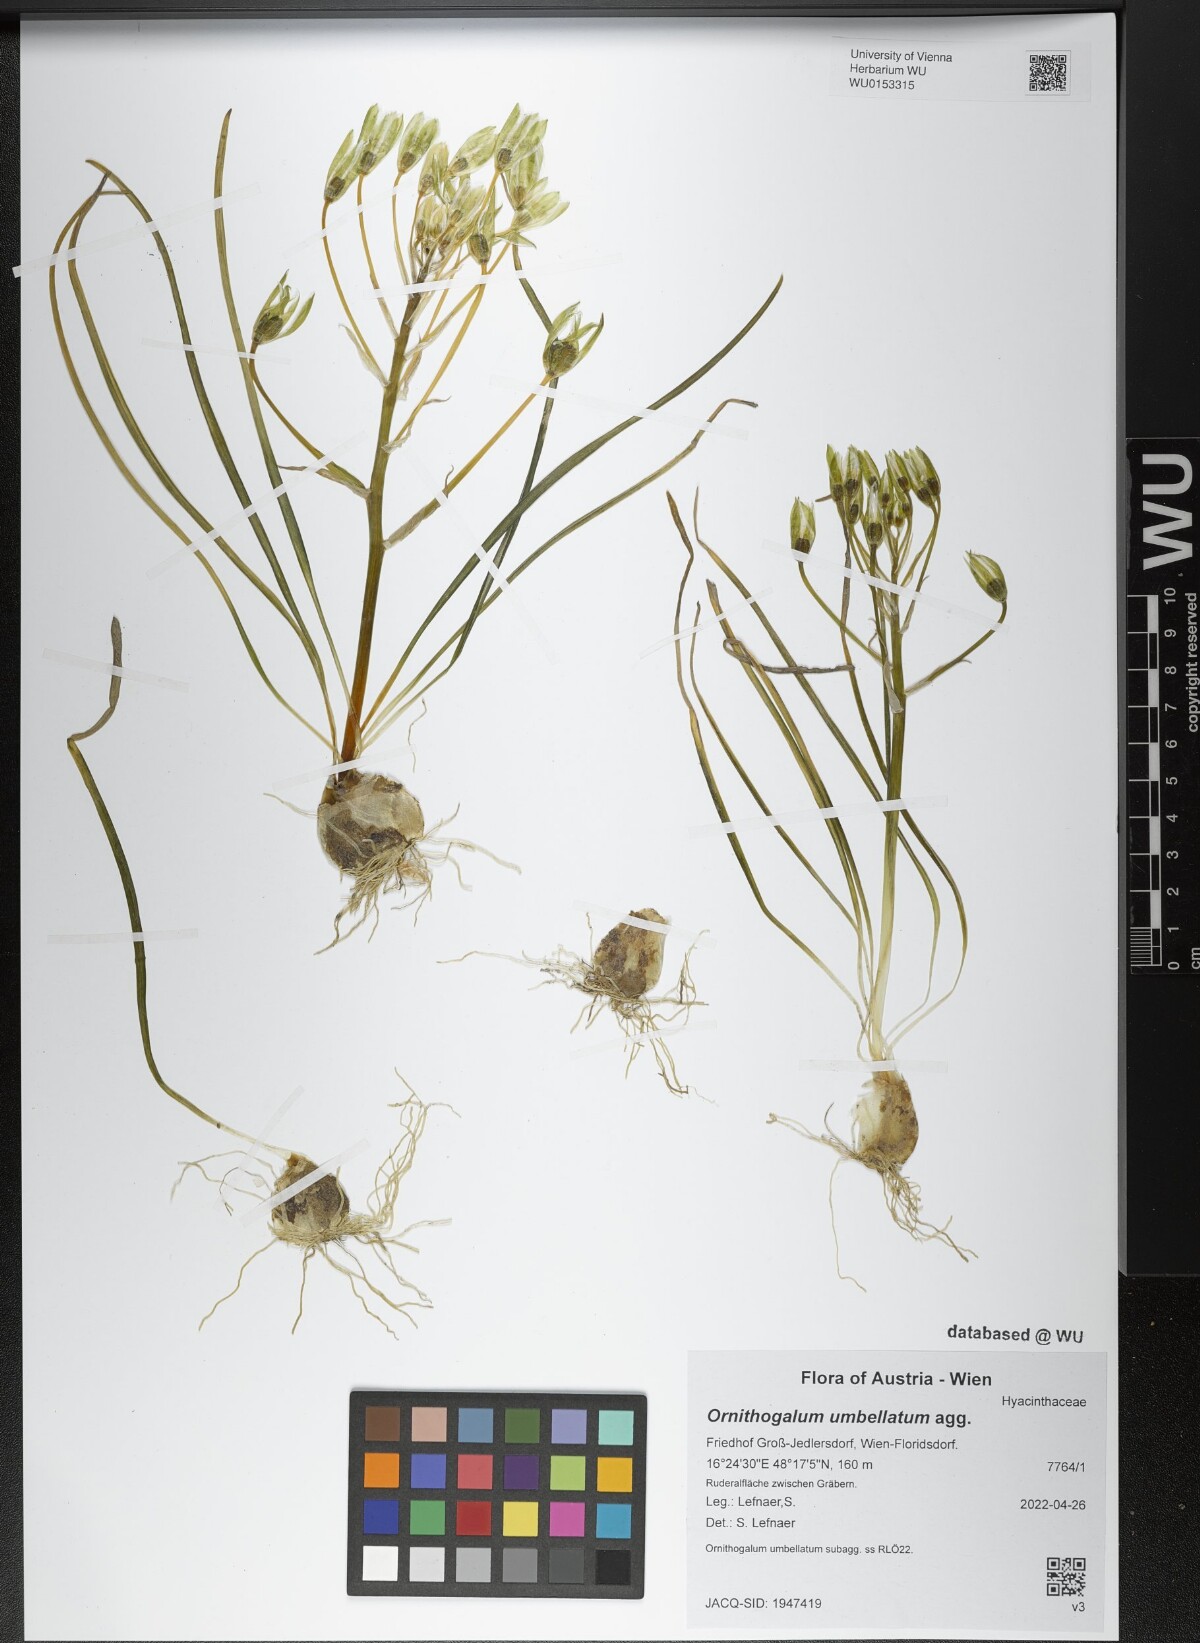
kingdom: Plantae
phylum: Tracheophyta
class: Liliopsida
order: Asparagales
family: Asparagaceae
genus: Ornithogalum
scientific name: Ornithogalum umbellatum
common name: Garden star-of-bethlehem
